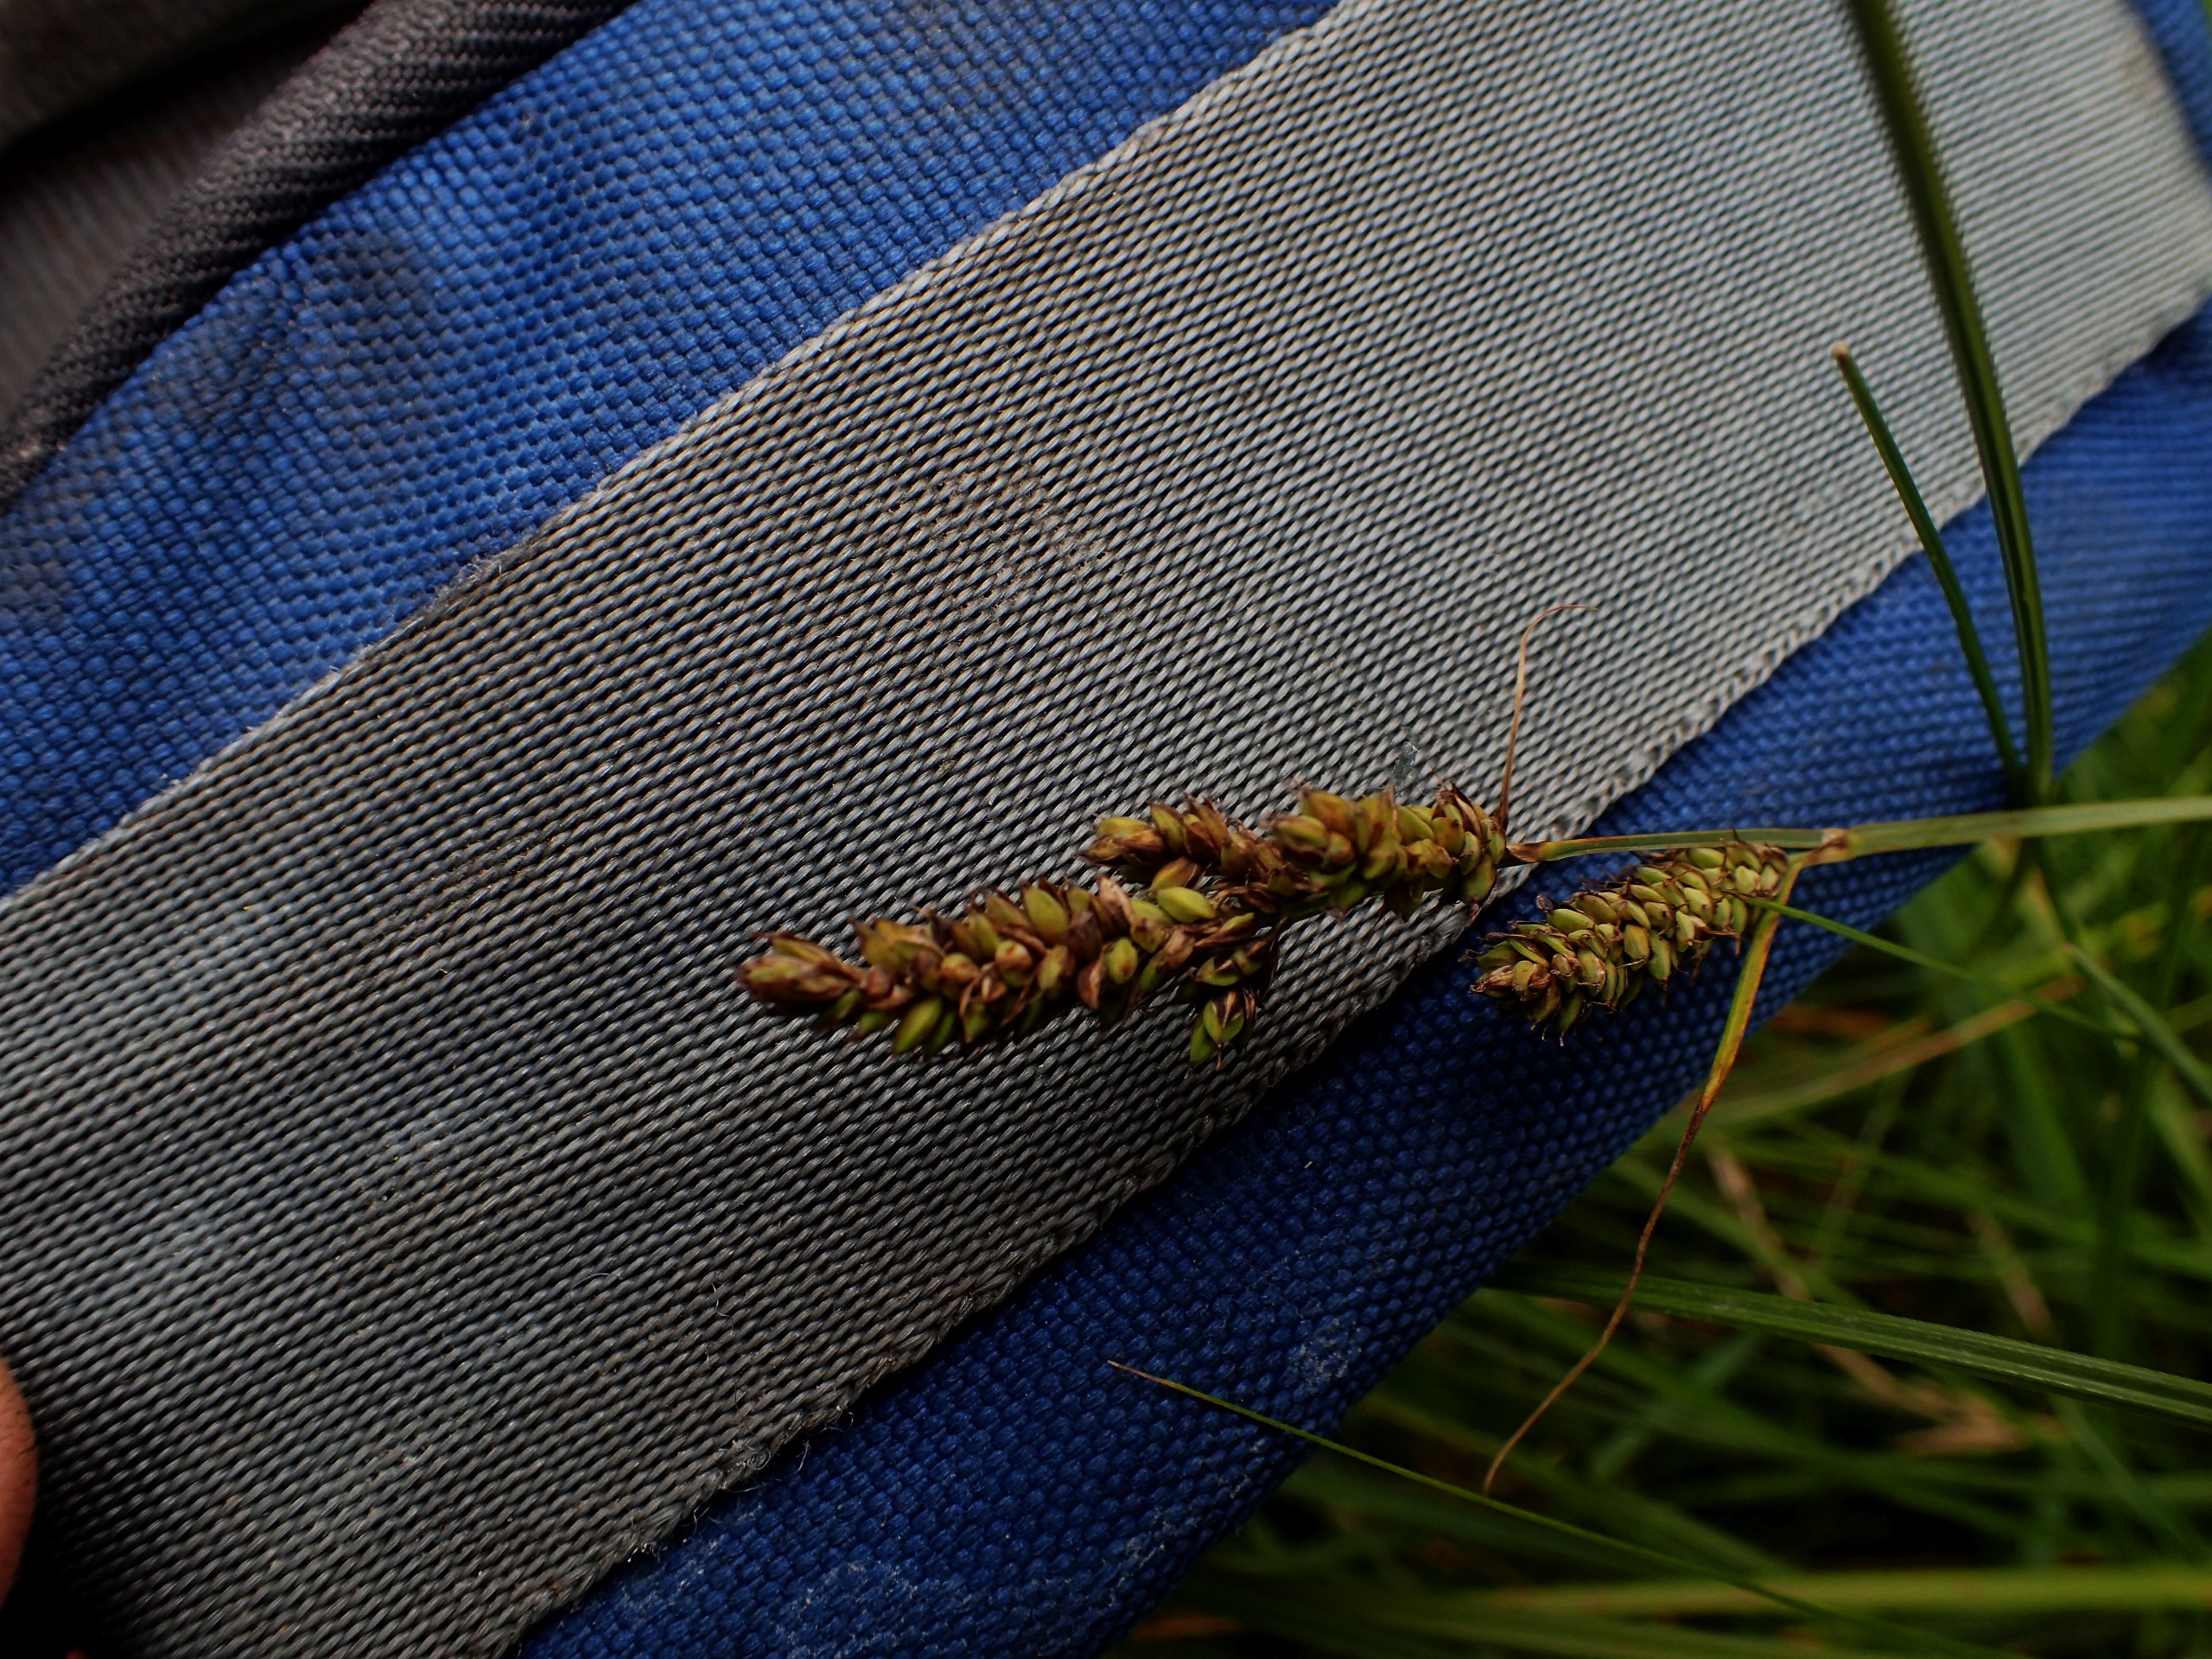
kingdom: Plantae
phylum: Tracheophyta
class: Liliopsida
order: Poales
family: Cyperaceae
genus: Carex
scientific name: Carex hartmaniorum
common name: Hartmans star
